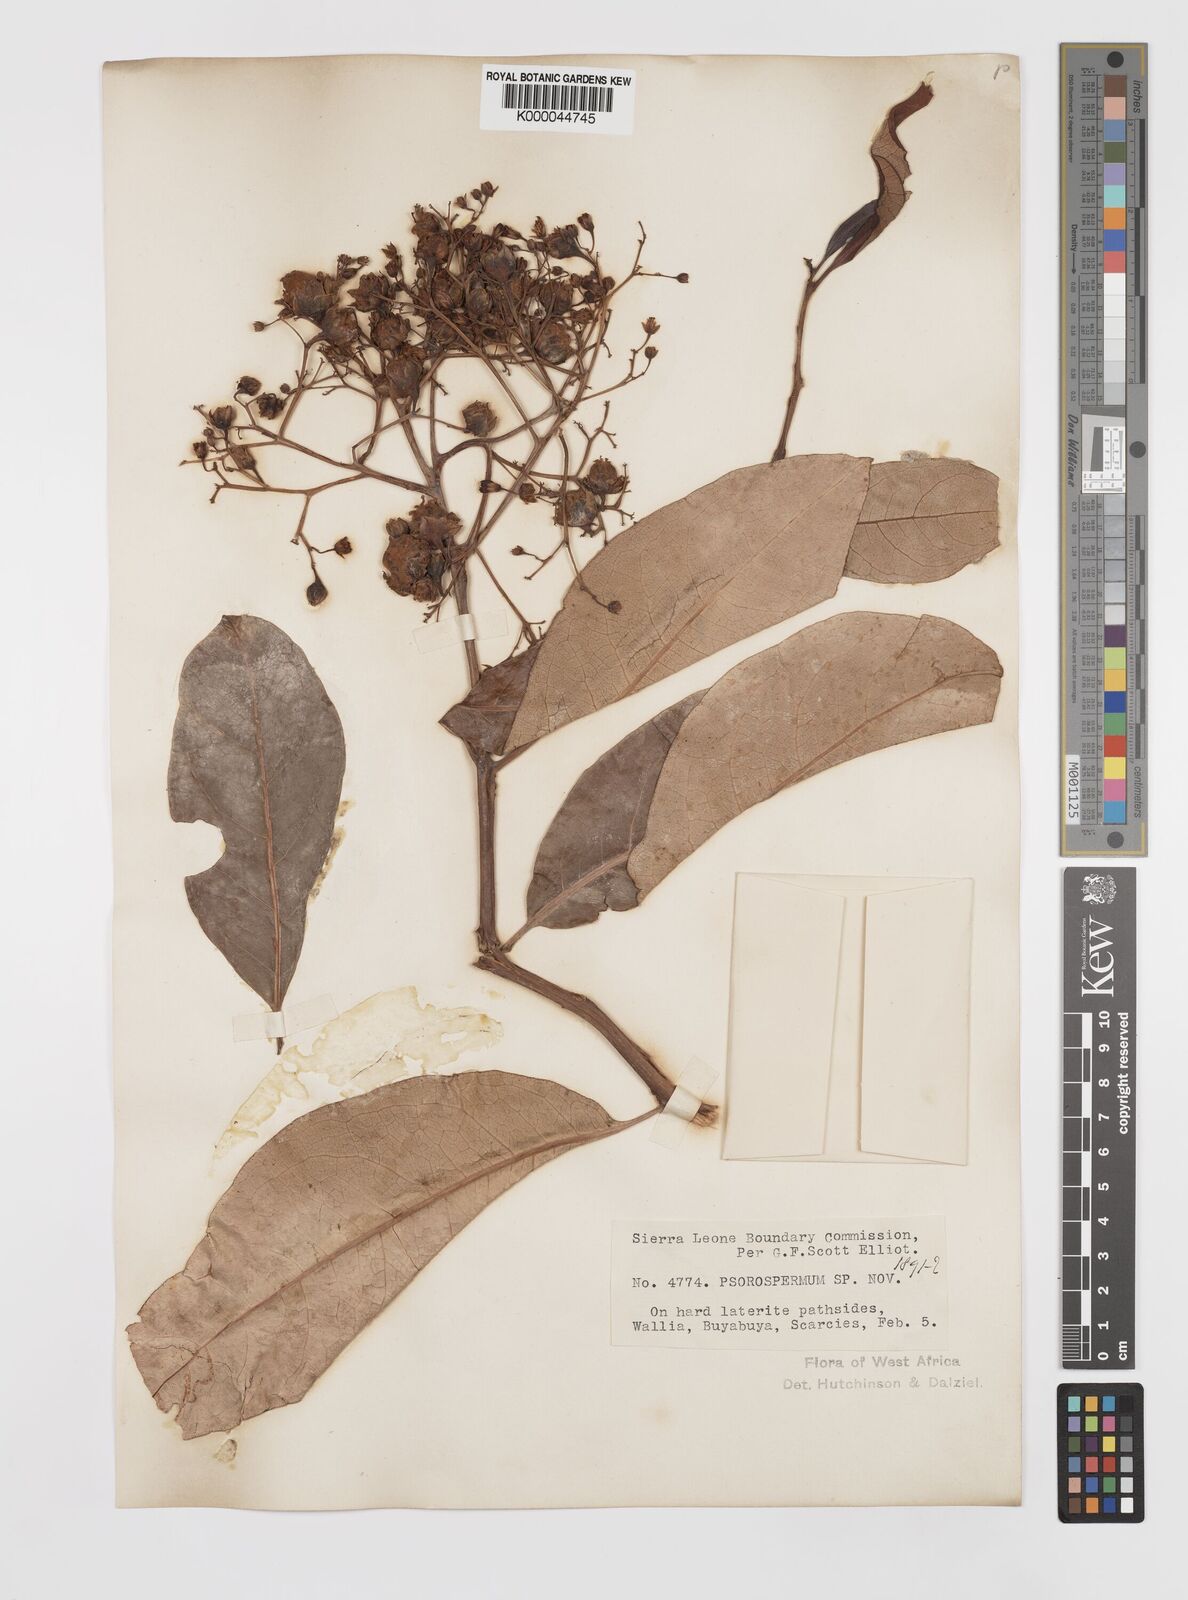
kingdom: Plantae
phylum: Tracheophyta
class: Magnoliopsida
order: Malpighiales
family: Hypericaceae
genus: Psorospermum
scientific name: Psorospermum alternifolium
